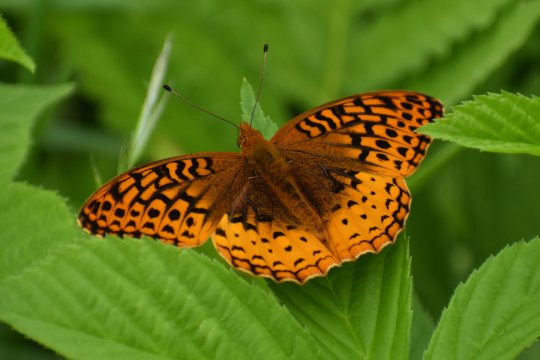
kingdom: Animalia
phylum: Arthropoda
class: Insecta
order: Lepidoptera
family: Nymphalidae
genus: Speyeria
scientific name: Speyeria cybele
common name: Great Spangled Fritillary
